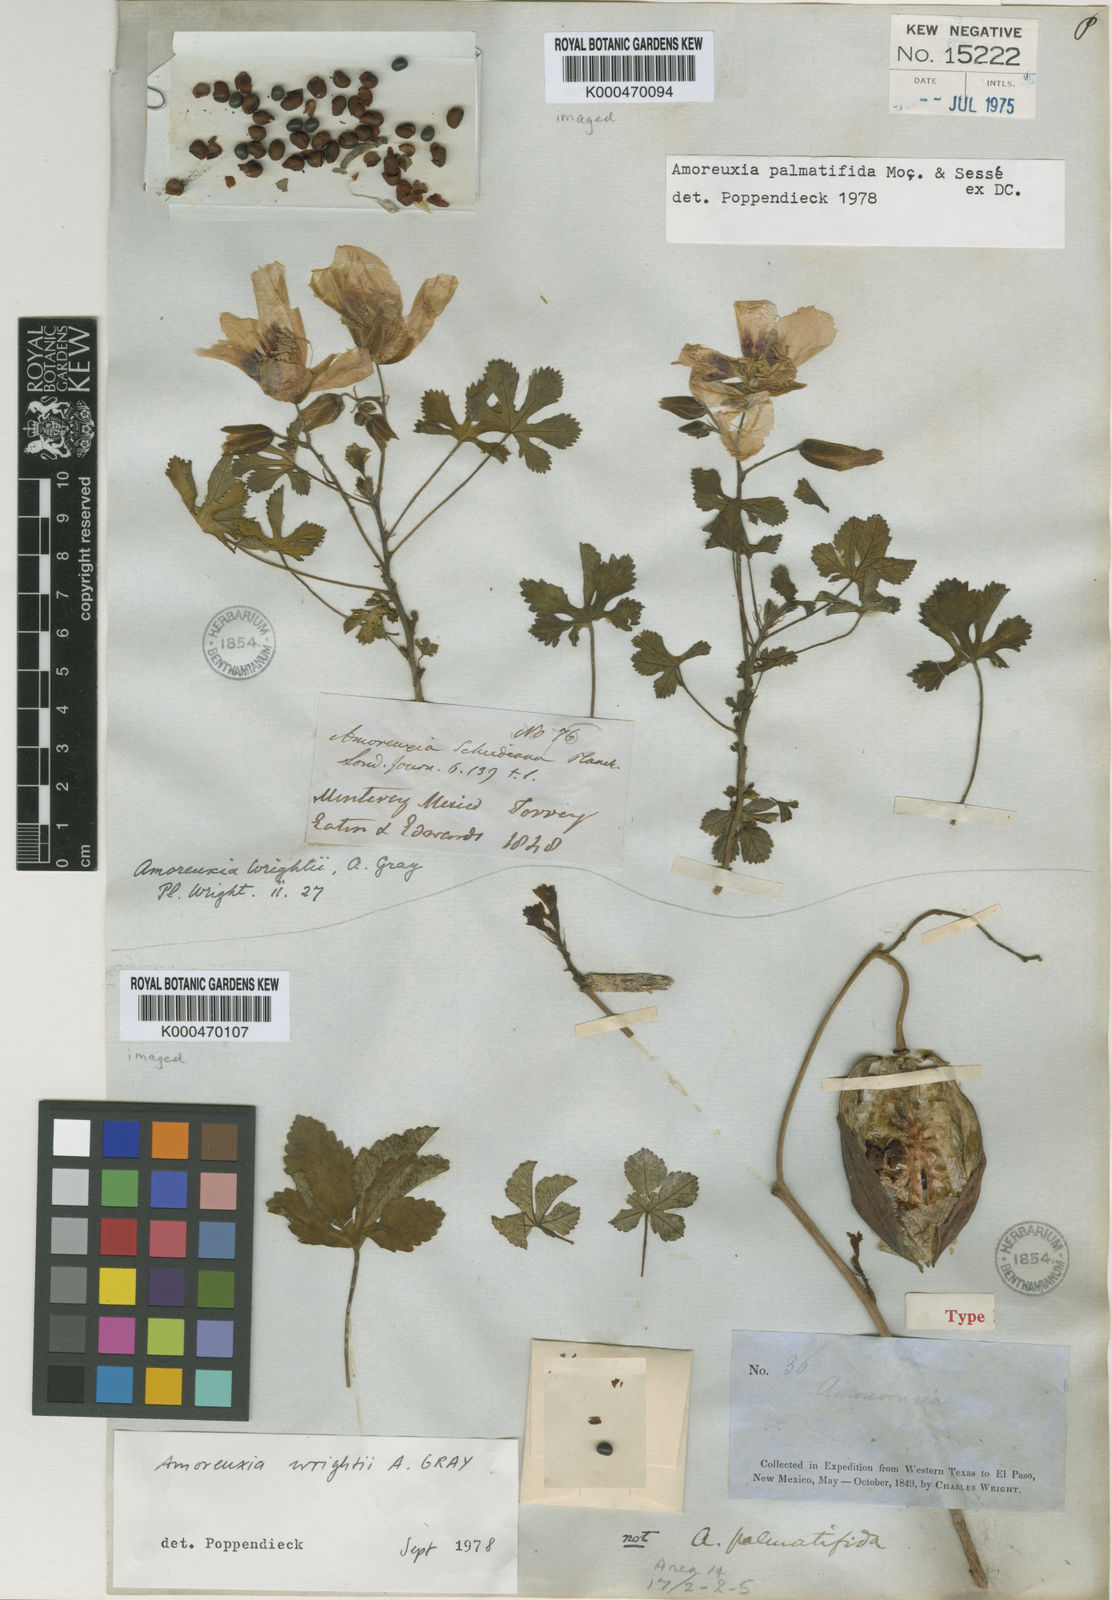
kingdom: Plantae
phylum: Tracheophyta
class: Magnoliopsida
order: Malvales
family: Cochlospermaceae
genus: Cochlospermum
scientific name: Cochlospermum wrightii
